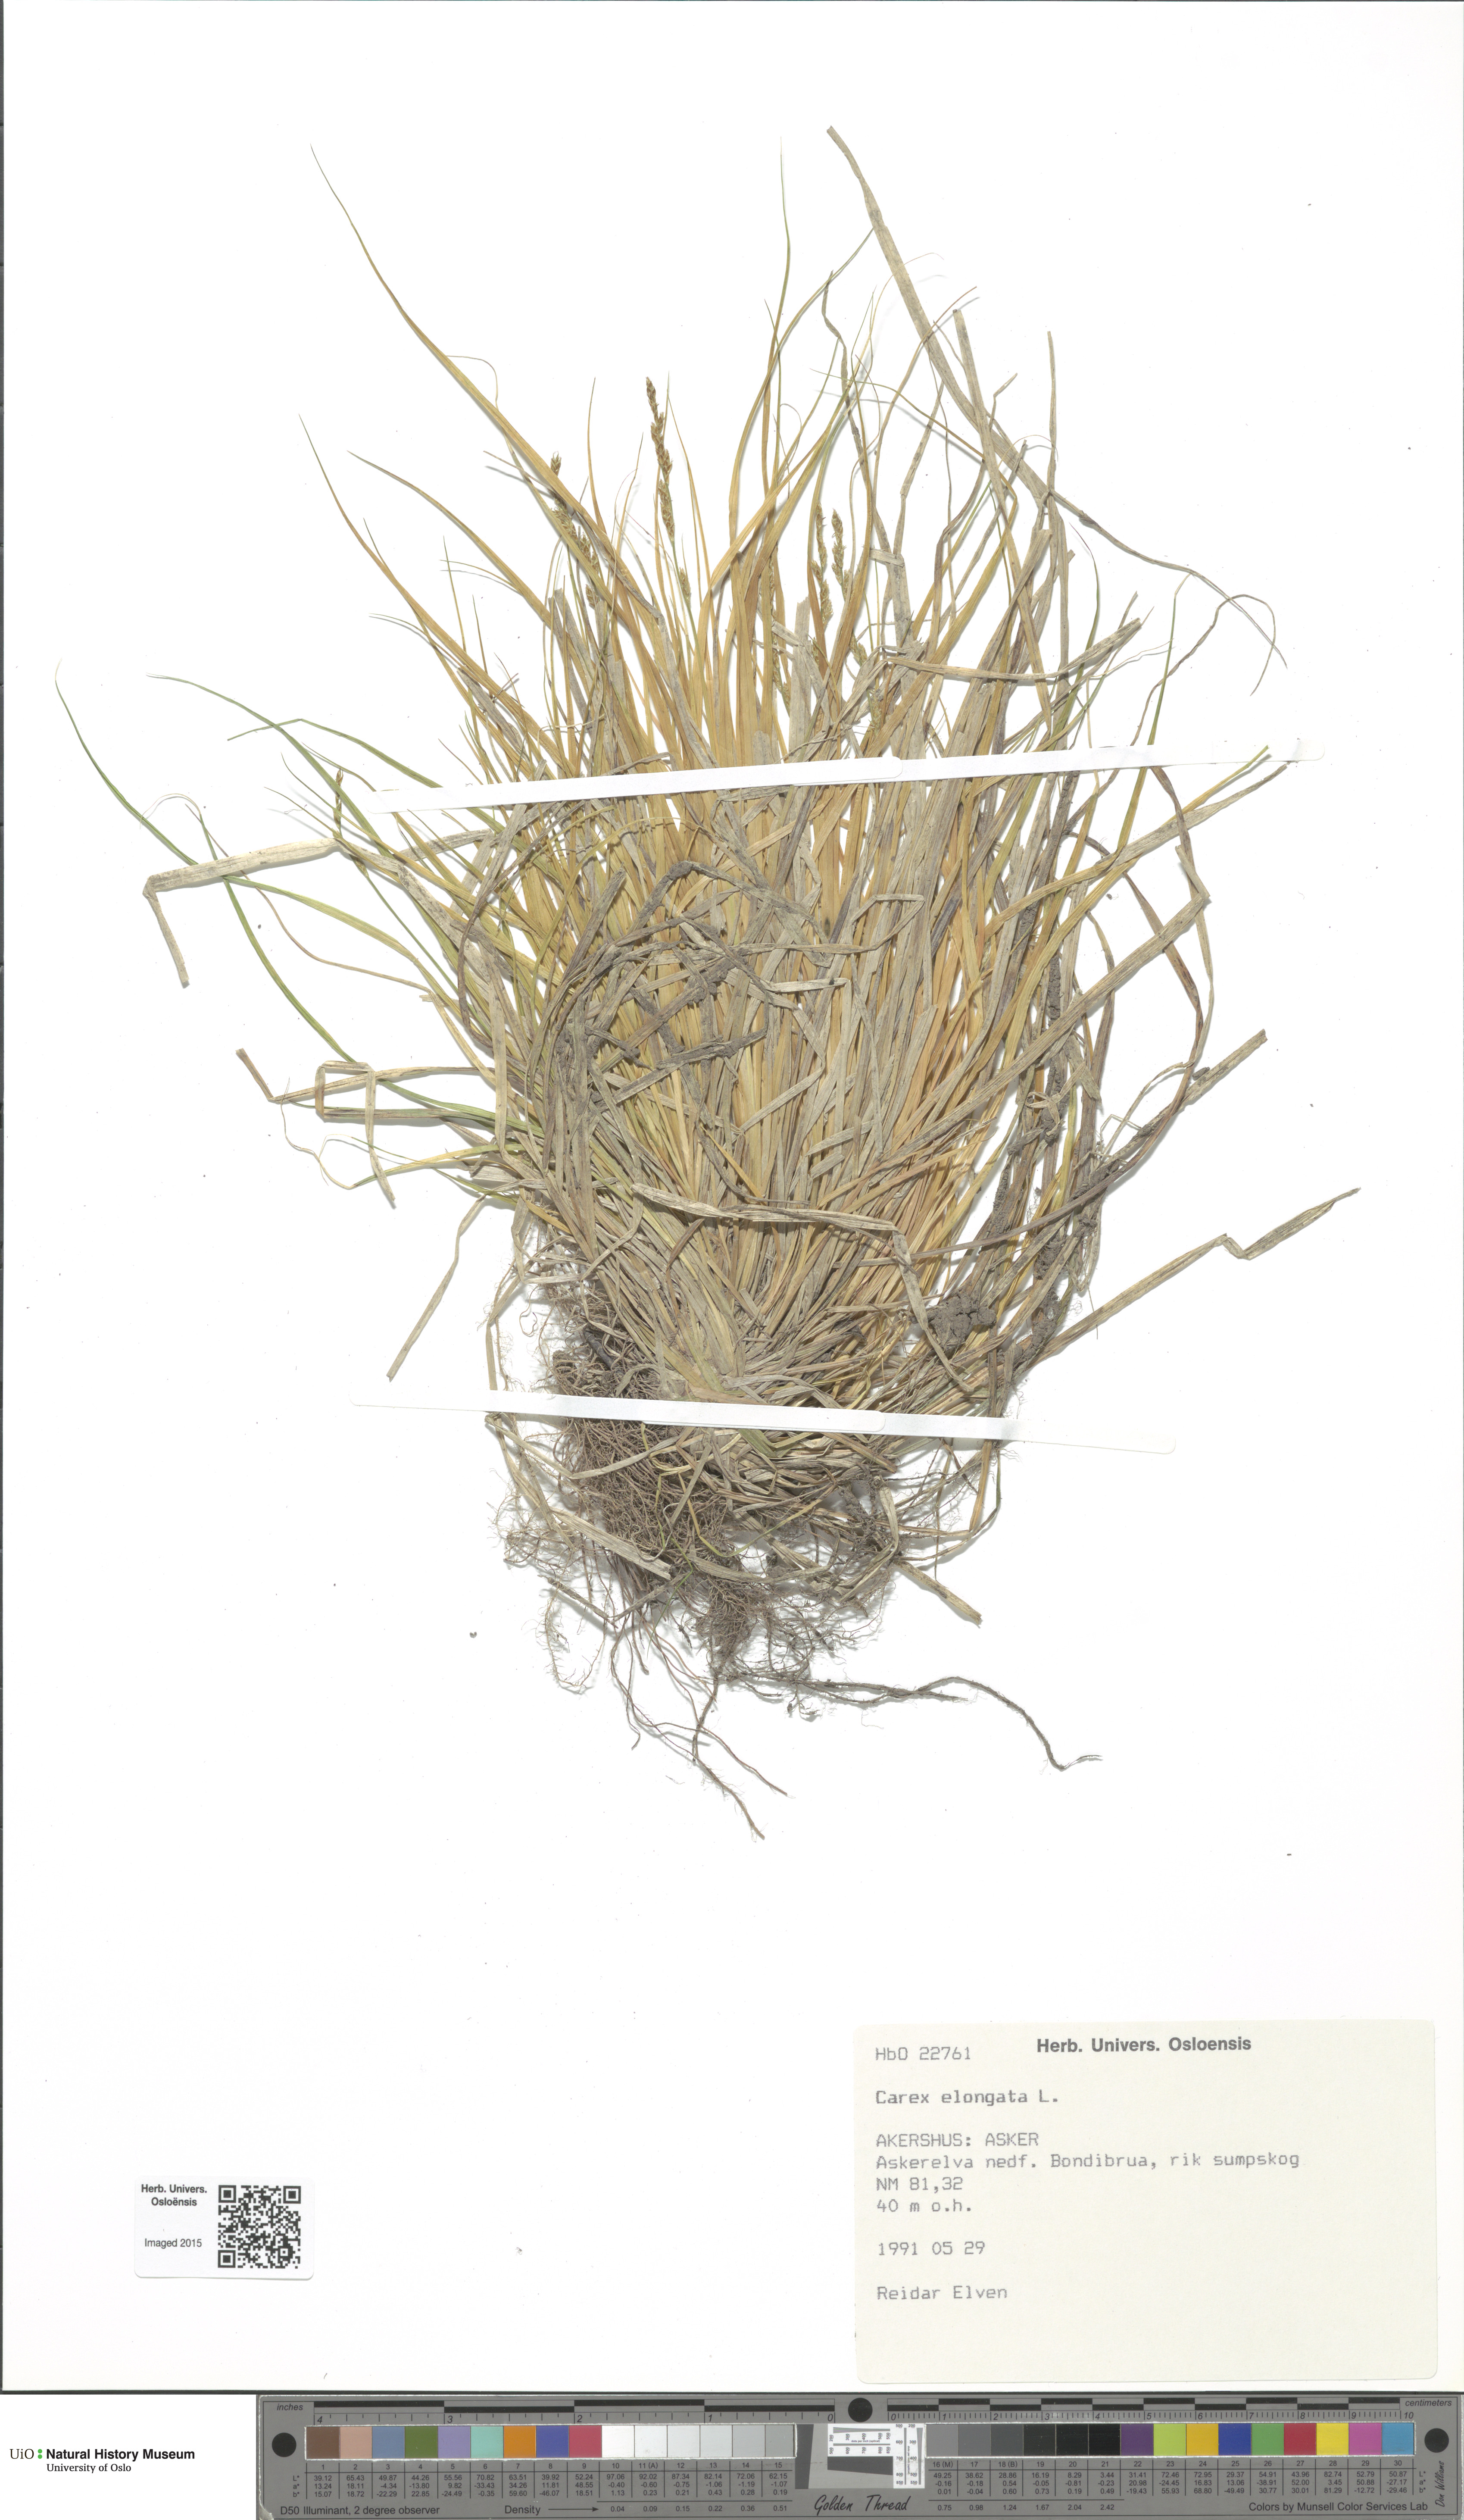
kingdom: Plantae
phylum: Tracheophyta
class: Liliopsida
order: Poales
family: Cyperaceae
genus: Carex
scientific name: Carex elongata
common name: Elongated sedge
